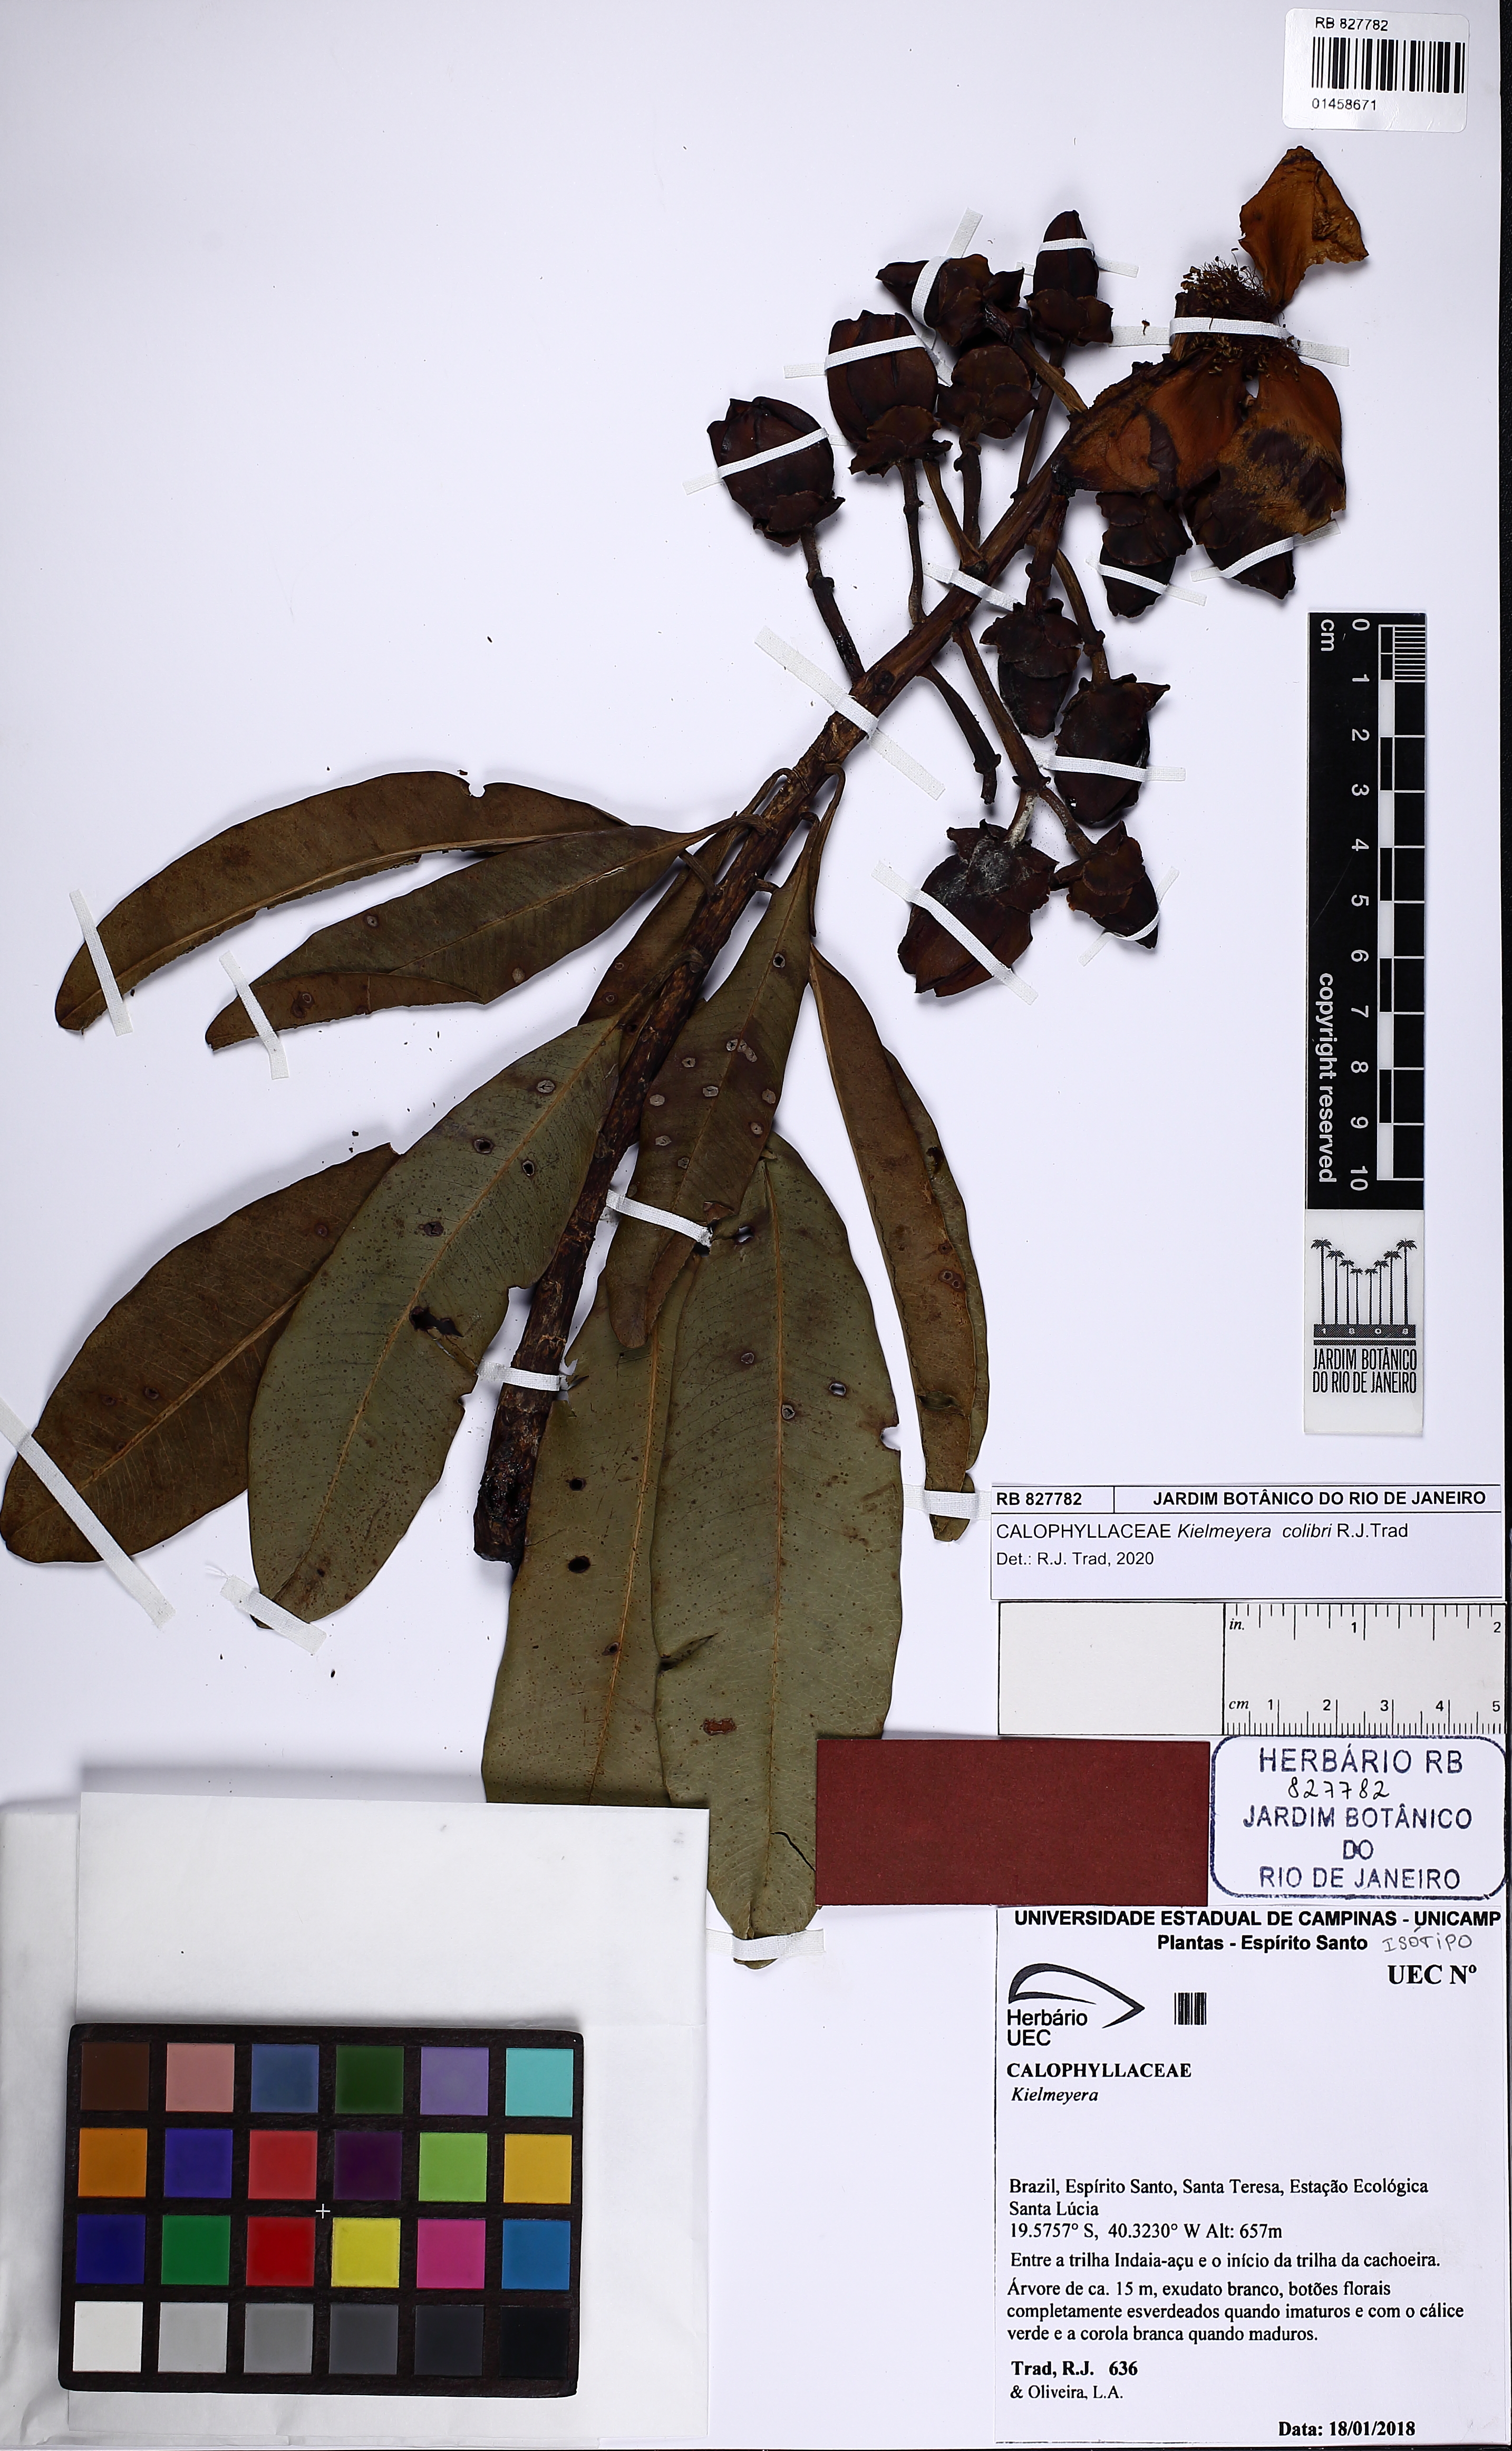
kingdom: Plantae
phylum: Tracheophyta
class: Magnoliopsida
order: Malpighiales
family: Calophyllaceae
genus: Kielmeyera
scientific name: Kielmeyera colibri
